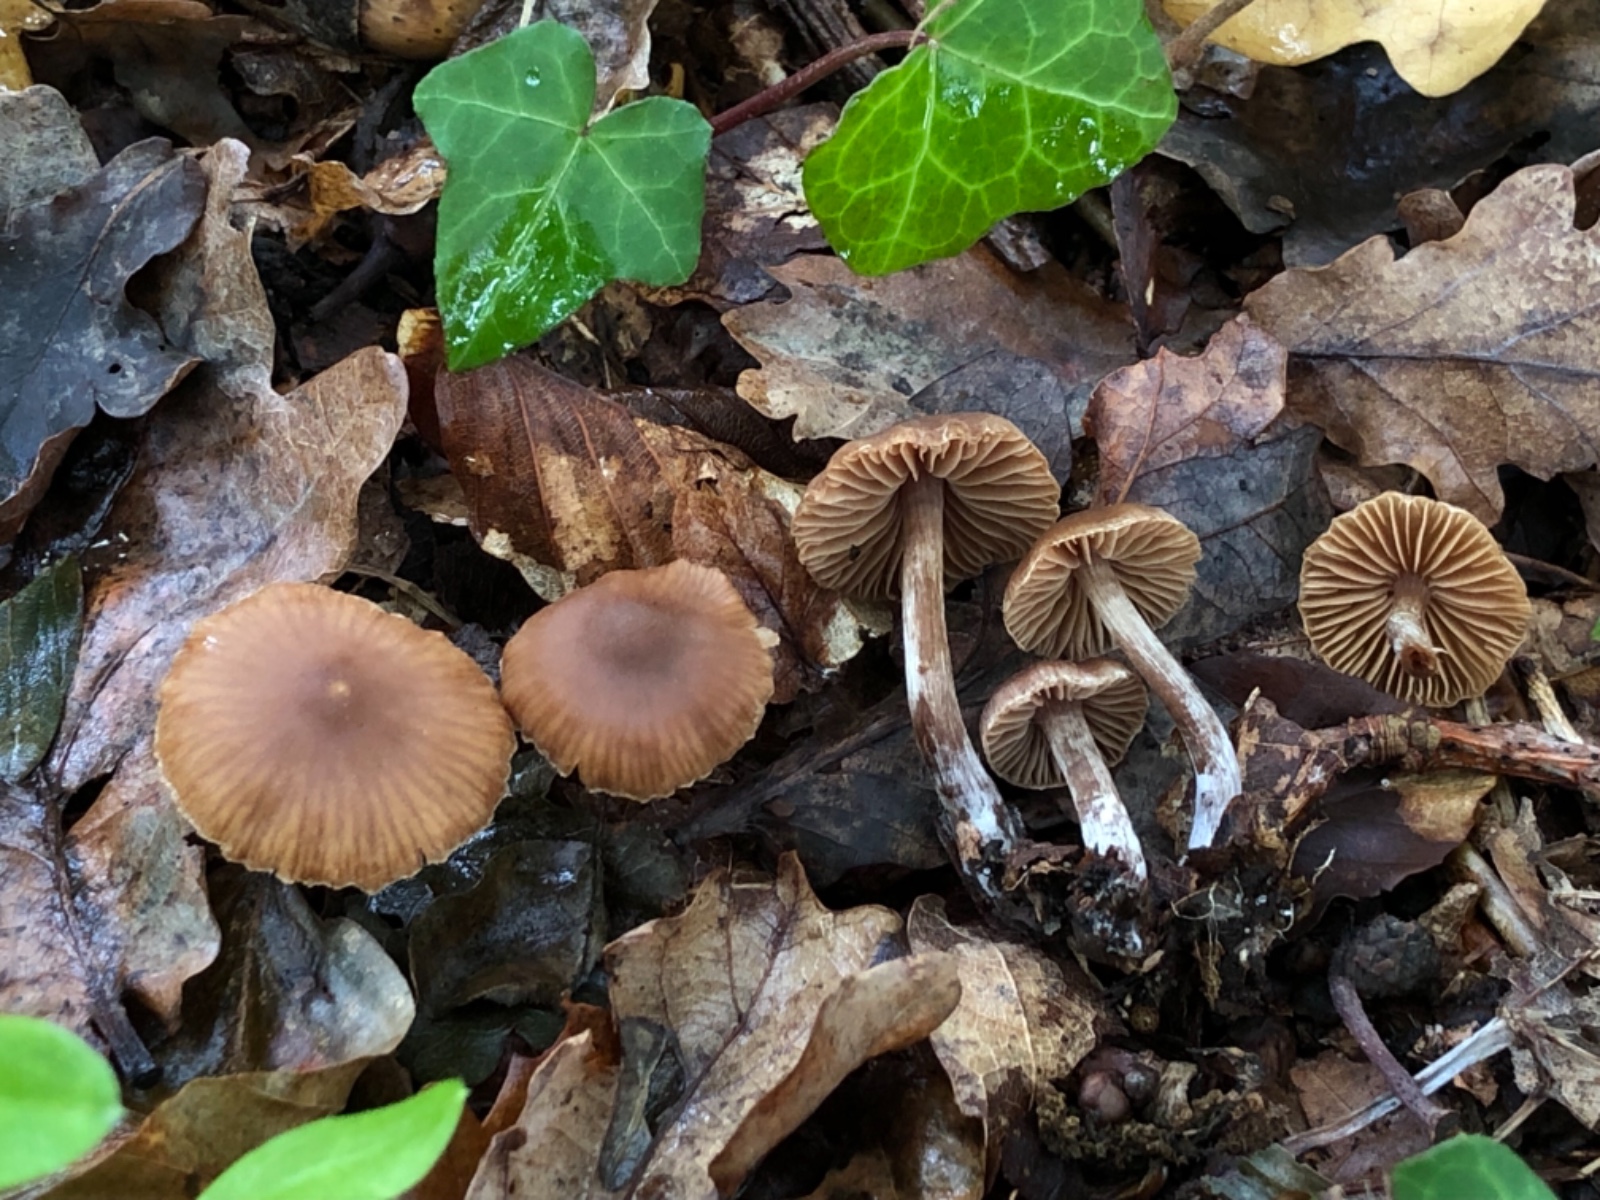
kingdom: Fungi
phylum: Basidiomycota
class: Agaricomycetes
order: Agaricales
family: Cortinariaceae
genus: Cortinarius
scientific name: Cortinarius russulaespermus
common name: finstribet slørhat
